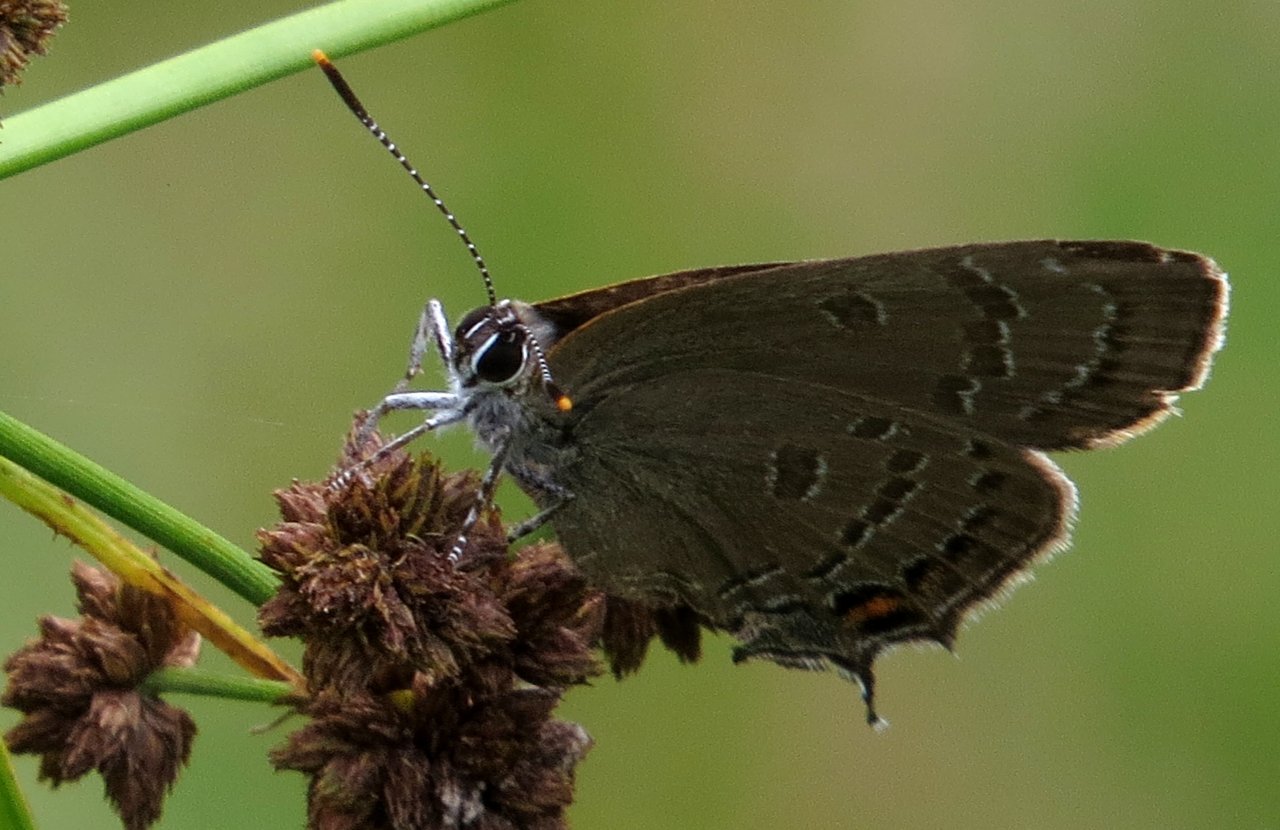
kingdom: Animalia
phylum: Arthropoda
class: Insecta
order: Lepidoptera
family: Lycaenidae
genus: Satyrium
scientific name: Satyrium calanus
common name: Banded Hairstreak
